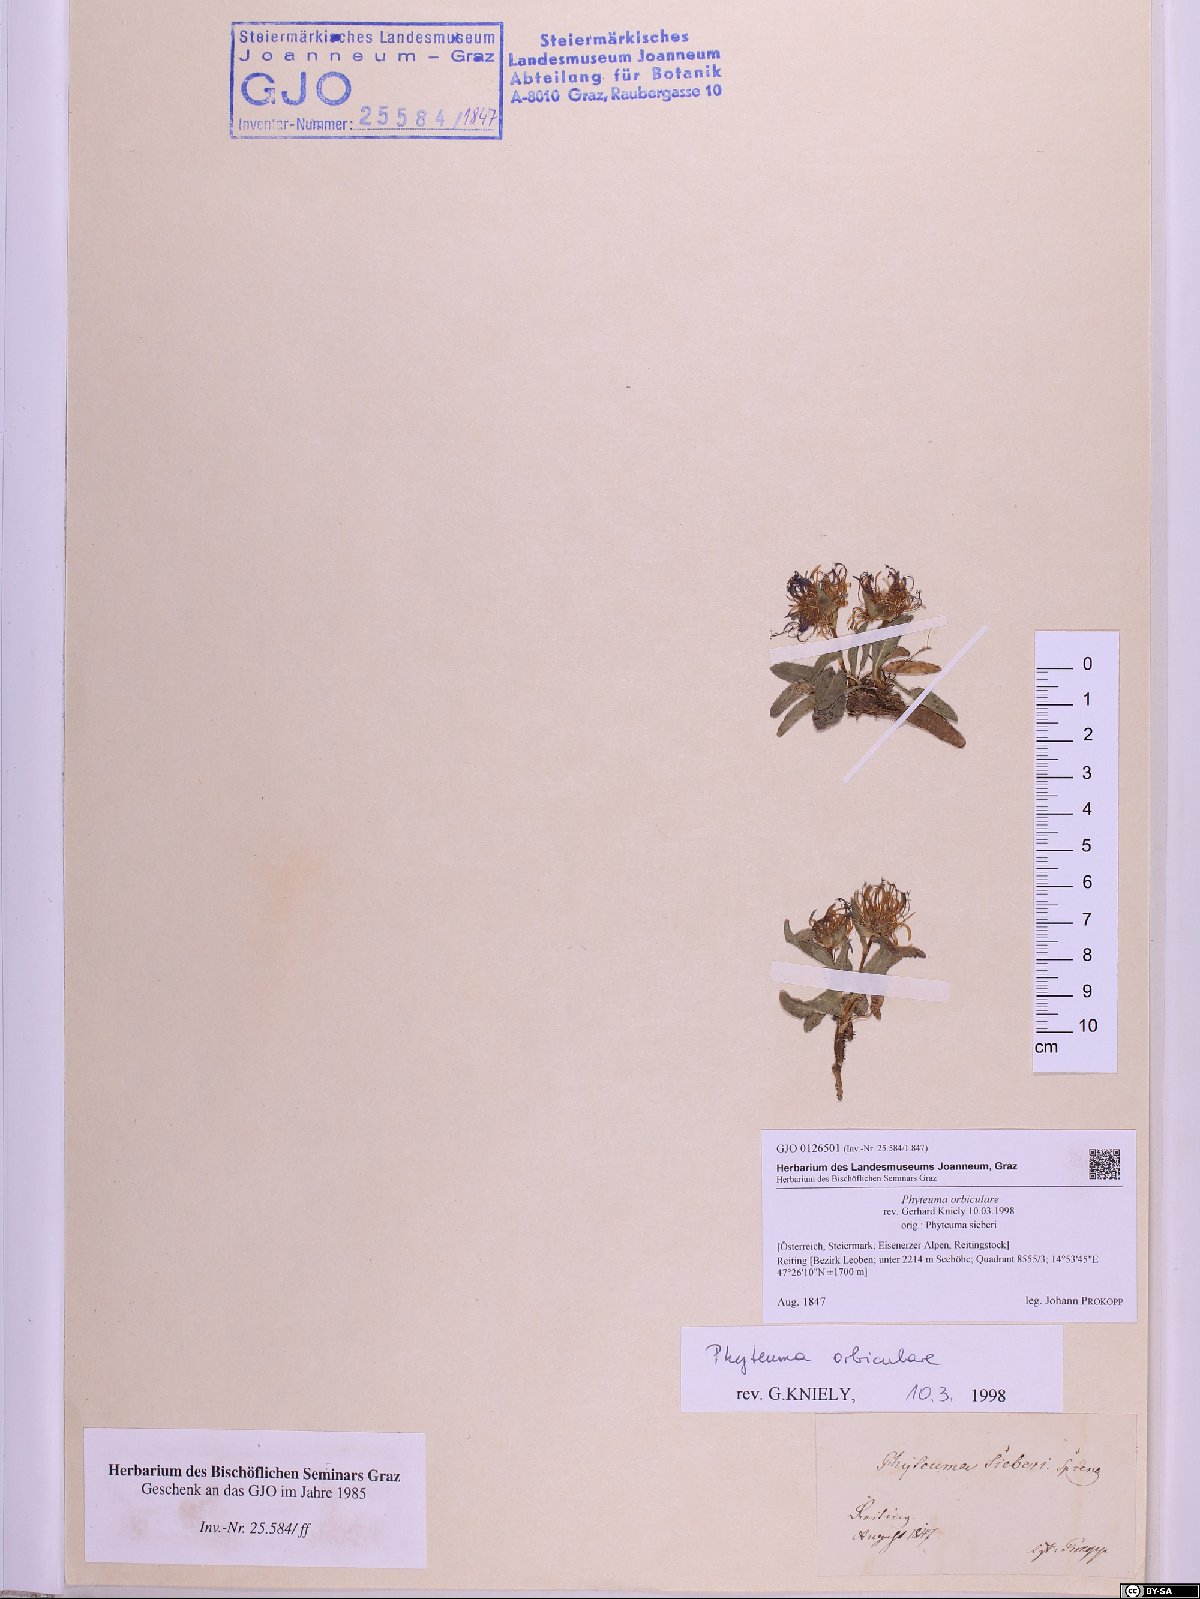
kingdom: Plantae
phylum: Tracheophyta
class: Magnoliopsida
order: Asterales
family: Campanulaceae
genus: Phyteuma
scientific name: Phyteuma orbiculare
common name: Round-headed rampion
